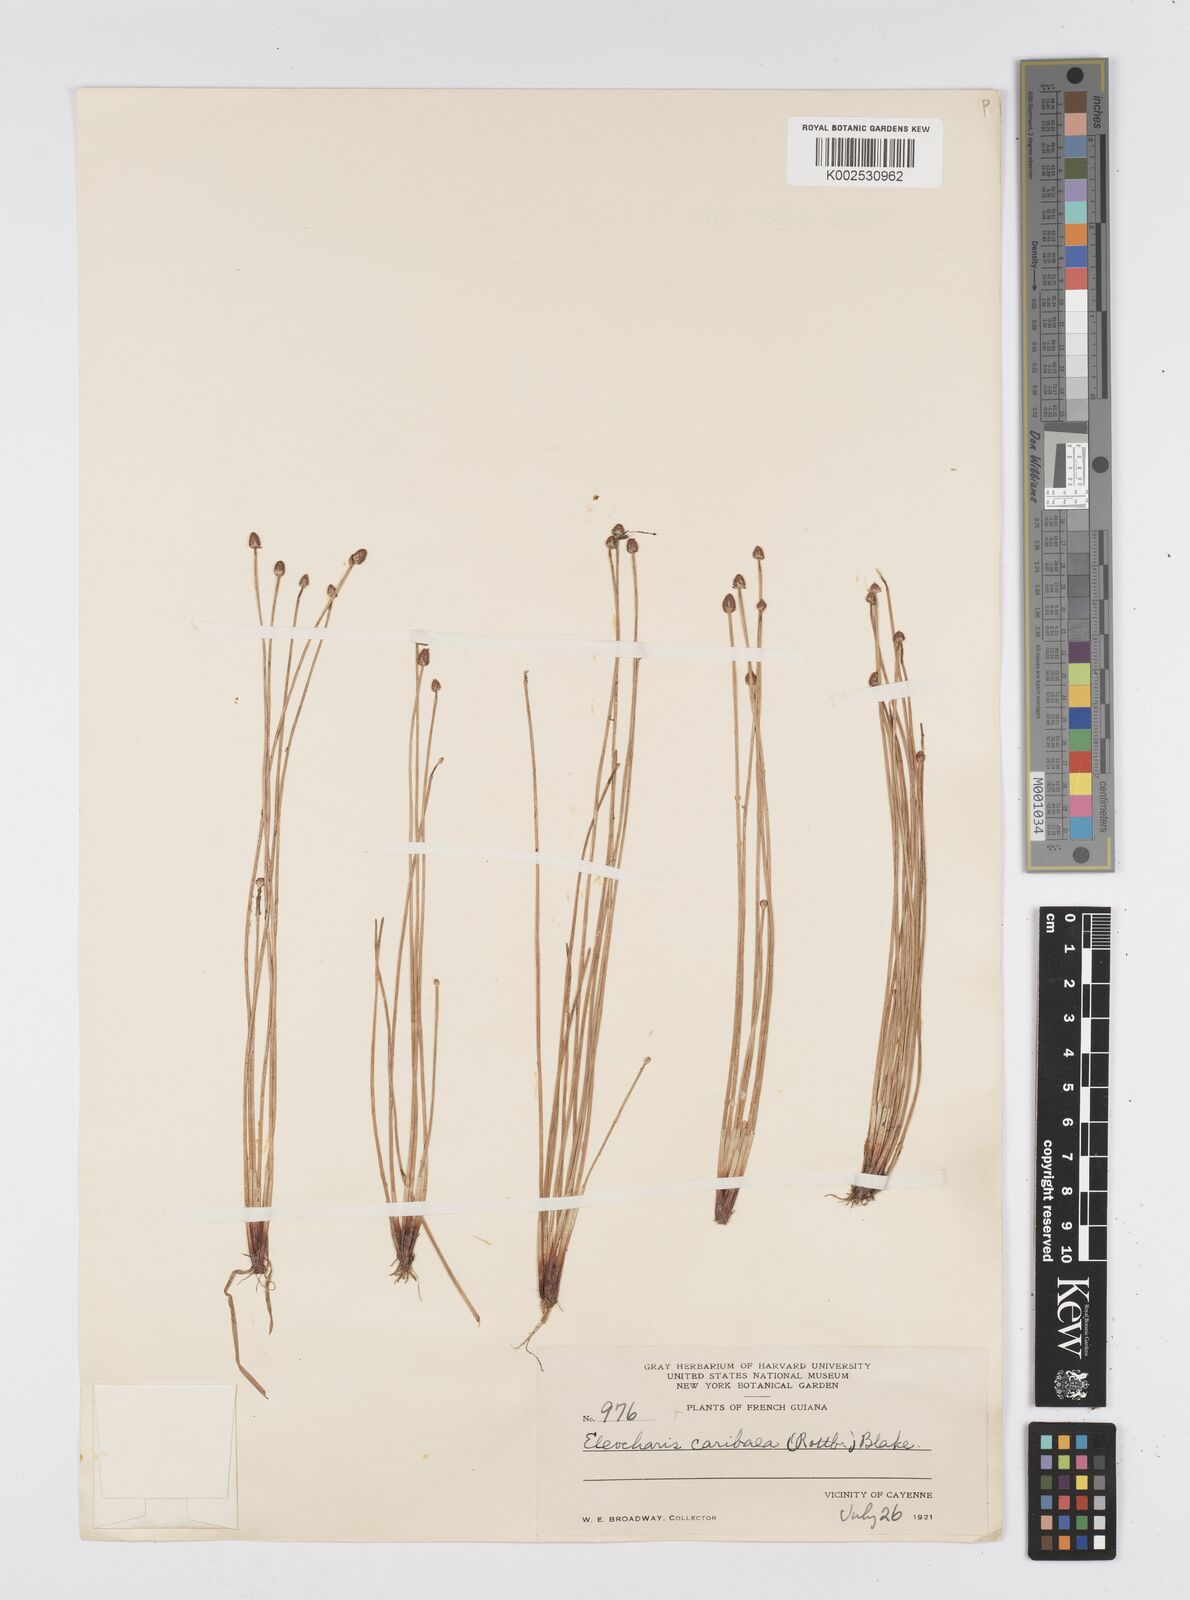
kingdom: Plantae
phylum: Tracheophyta
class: Liliopsida
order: Poales
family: Cyperaceae
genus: Eleocharis
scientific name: Eleocharis geniculata
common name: Canada spikesedge
